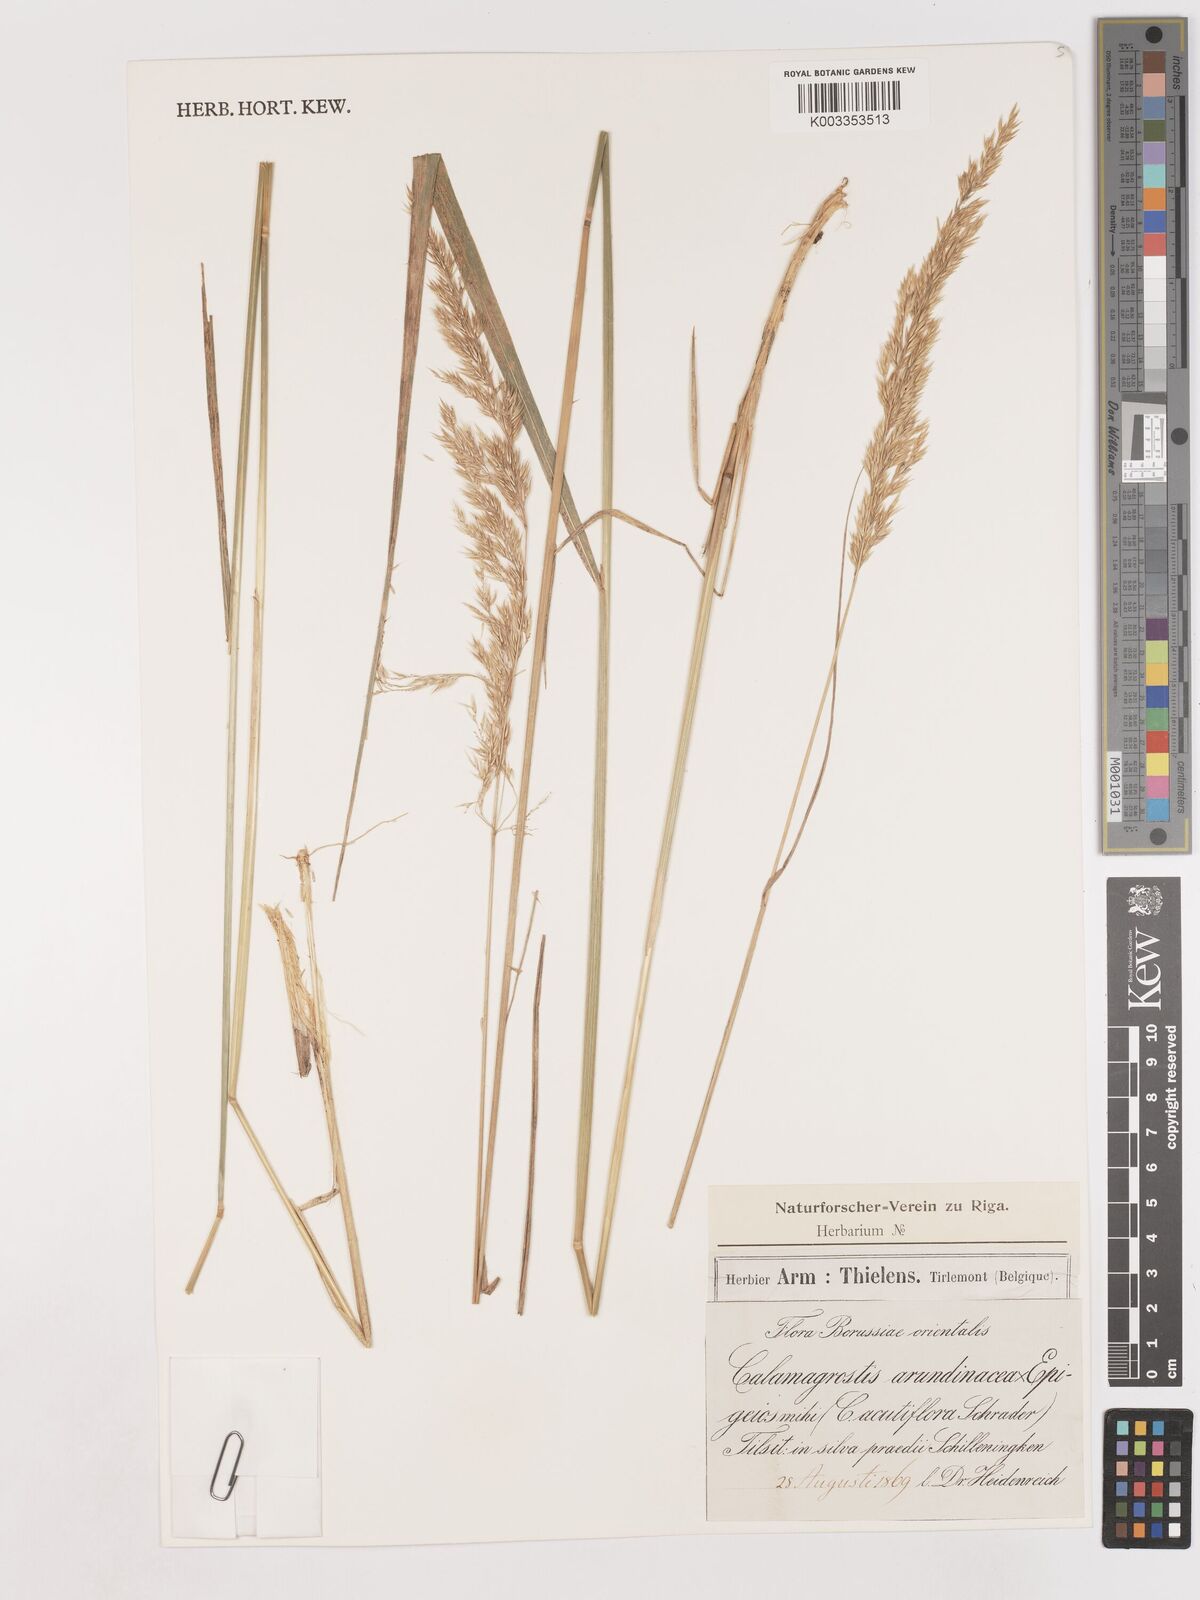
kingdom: Plantae
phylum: Tracheophyta
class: Liliopsida
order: Poales
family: Poaceae
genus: Calamagrostis
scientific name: Calamagrostis
